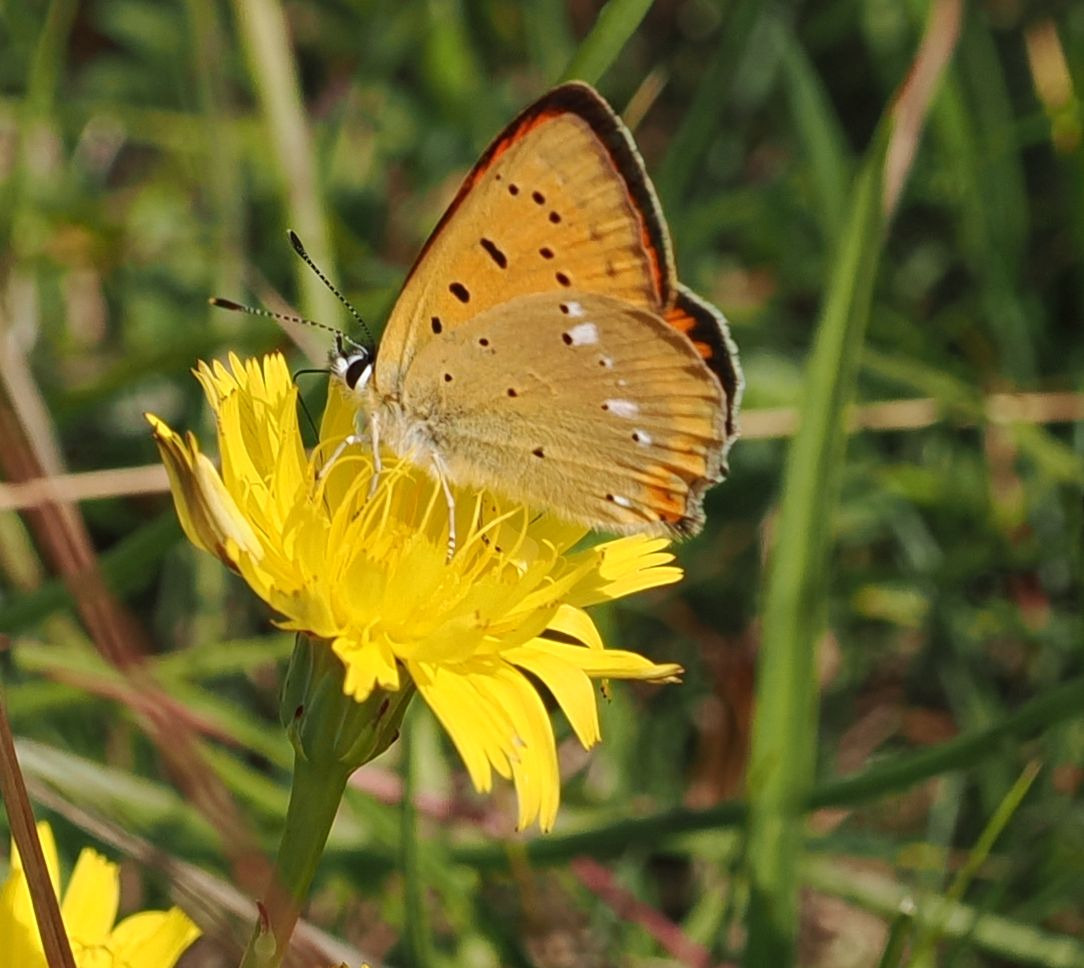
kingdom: Animalia
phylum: Arthropoda
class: Insecta
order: Lepidoptera
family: Lycaenidae
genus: Lycaena
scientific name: Lycaena virgaureae
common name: Dukatsommerfugl
